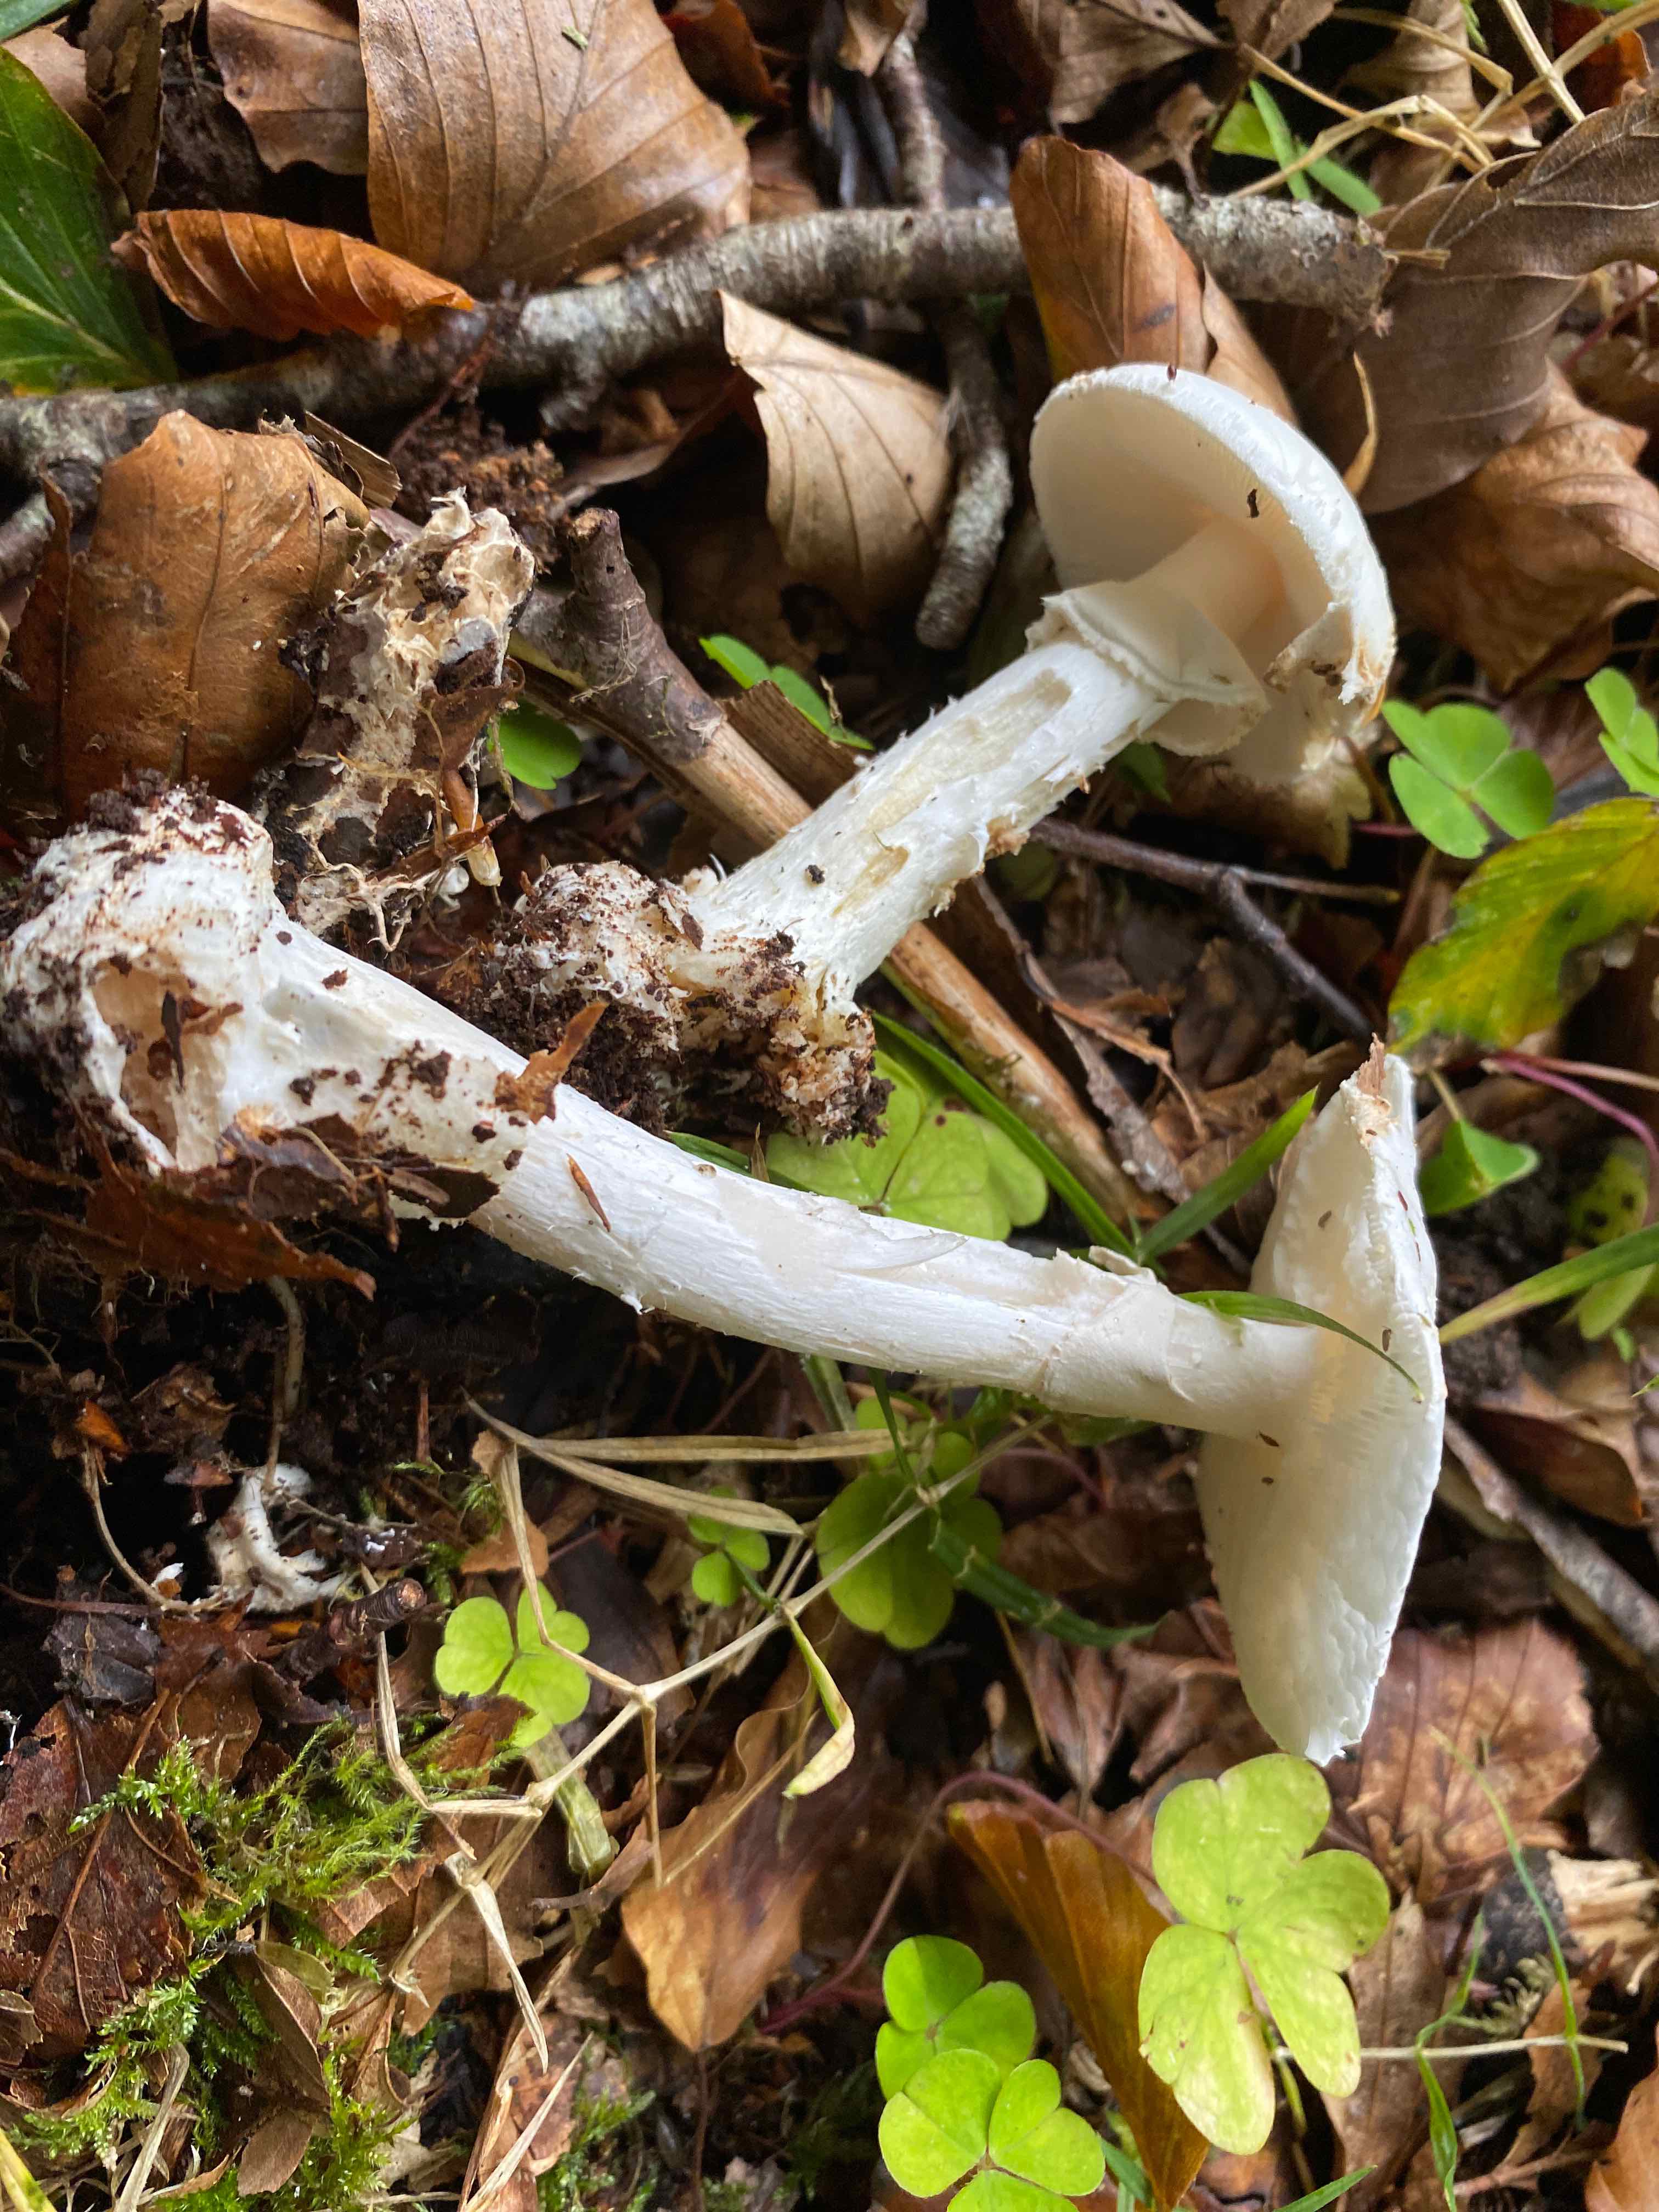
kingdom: Fungi
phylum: Basidiomycota
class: Agaricomycetes
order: Agaricales
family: Amanitaceae
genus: Amanita
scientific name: Amanita citrina
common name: kugleknoldet fluesvamp
